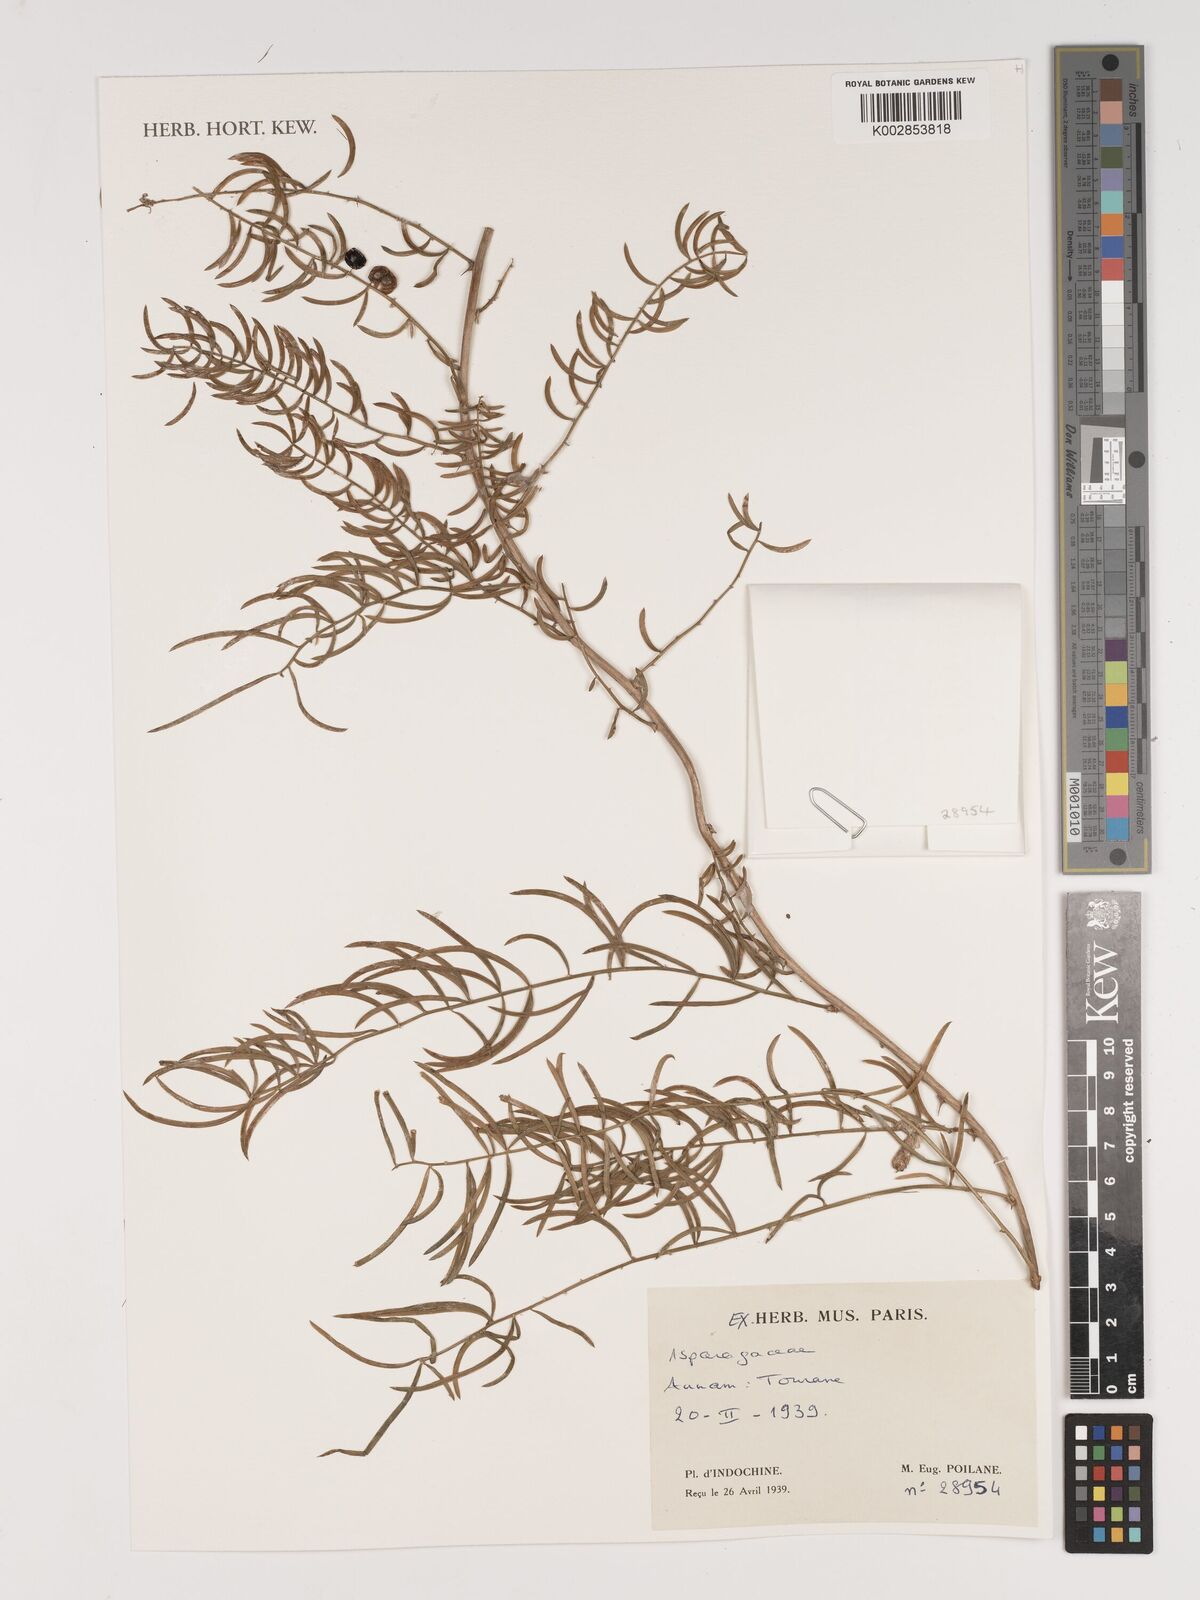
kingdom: Plantae
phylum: Tracheophyta
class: Liliopsida
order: Asparagales
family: Asparagaceae
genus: Asparagus
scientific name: Asparagus
